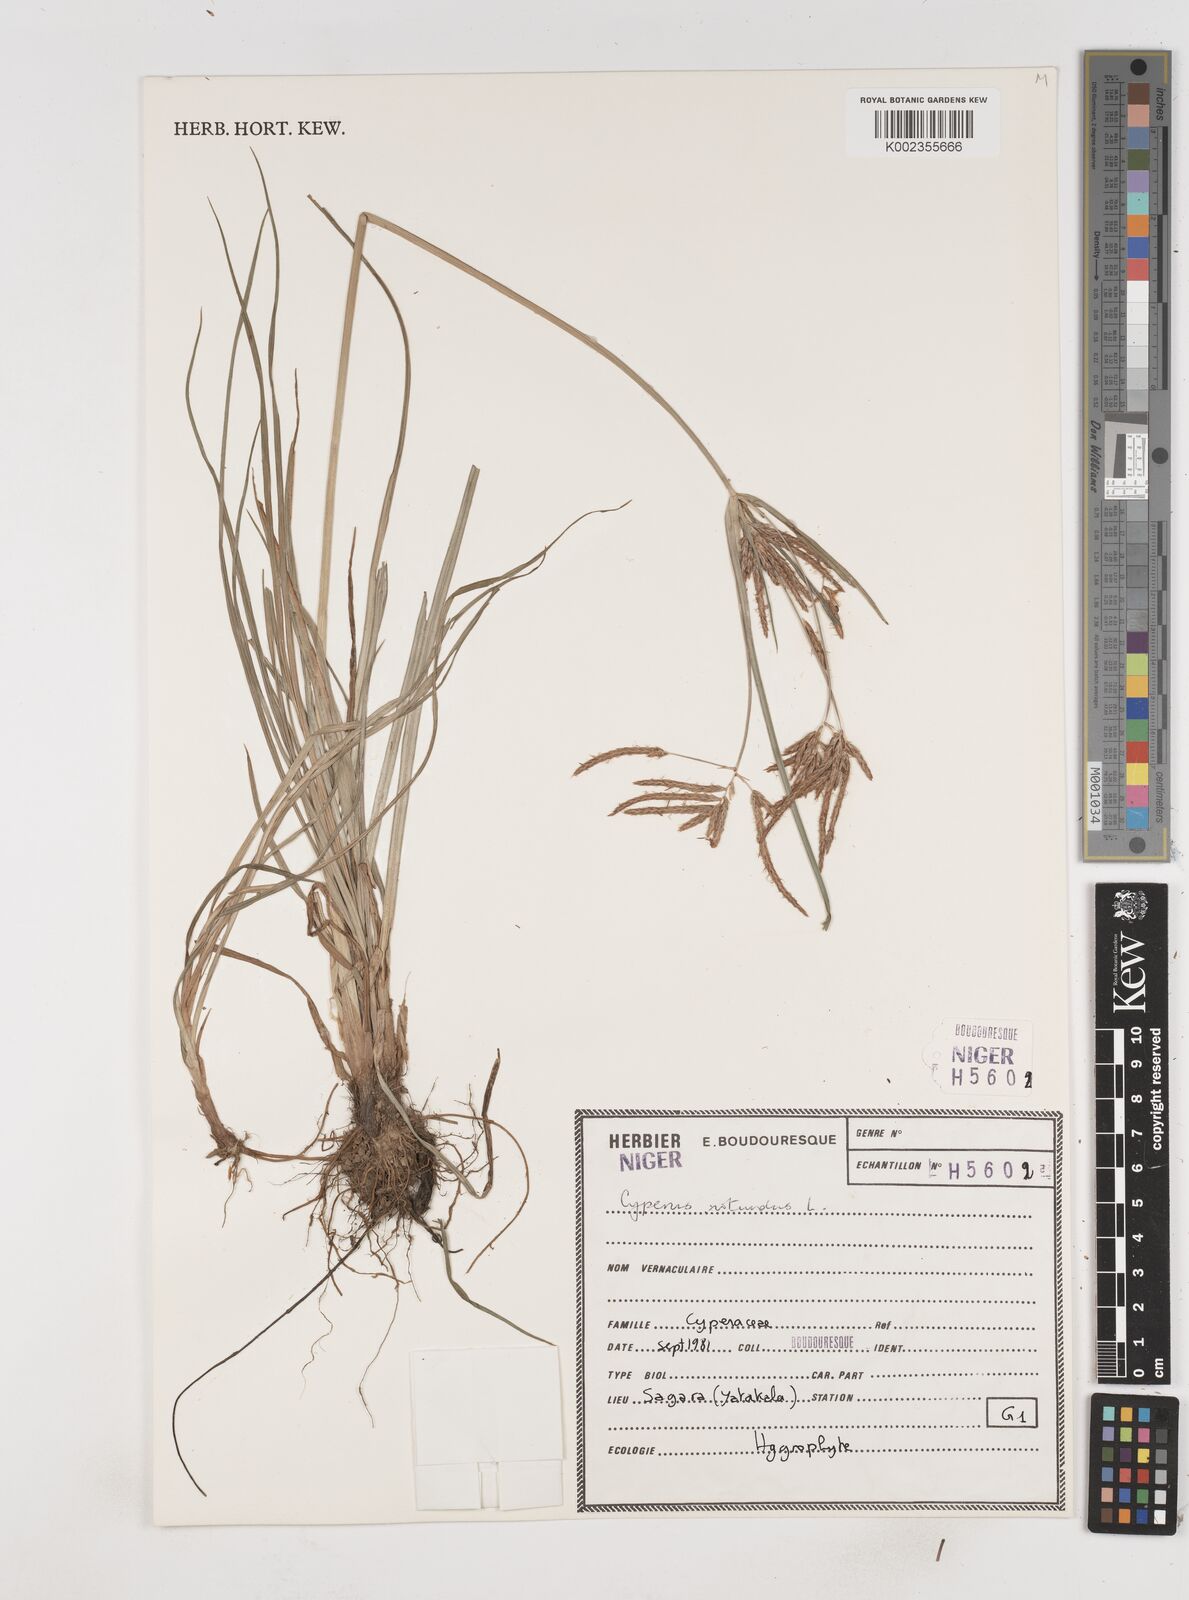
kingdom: Plantae
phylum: Tracheophyta
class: Liliopsida
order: Poales
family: Cyperaceae
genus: Cyperus
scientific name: Cyperus rotundus
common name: Nutgrass
